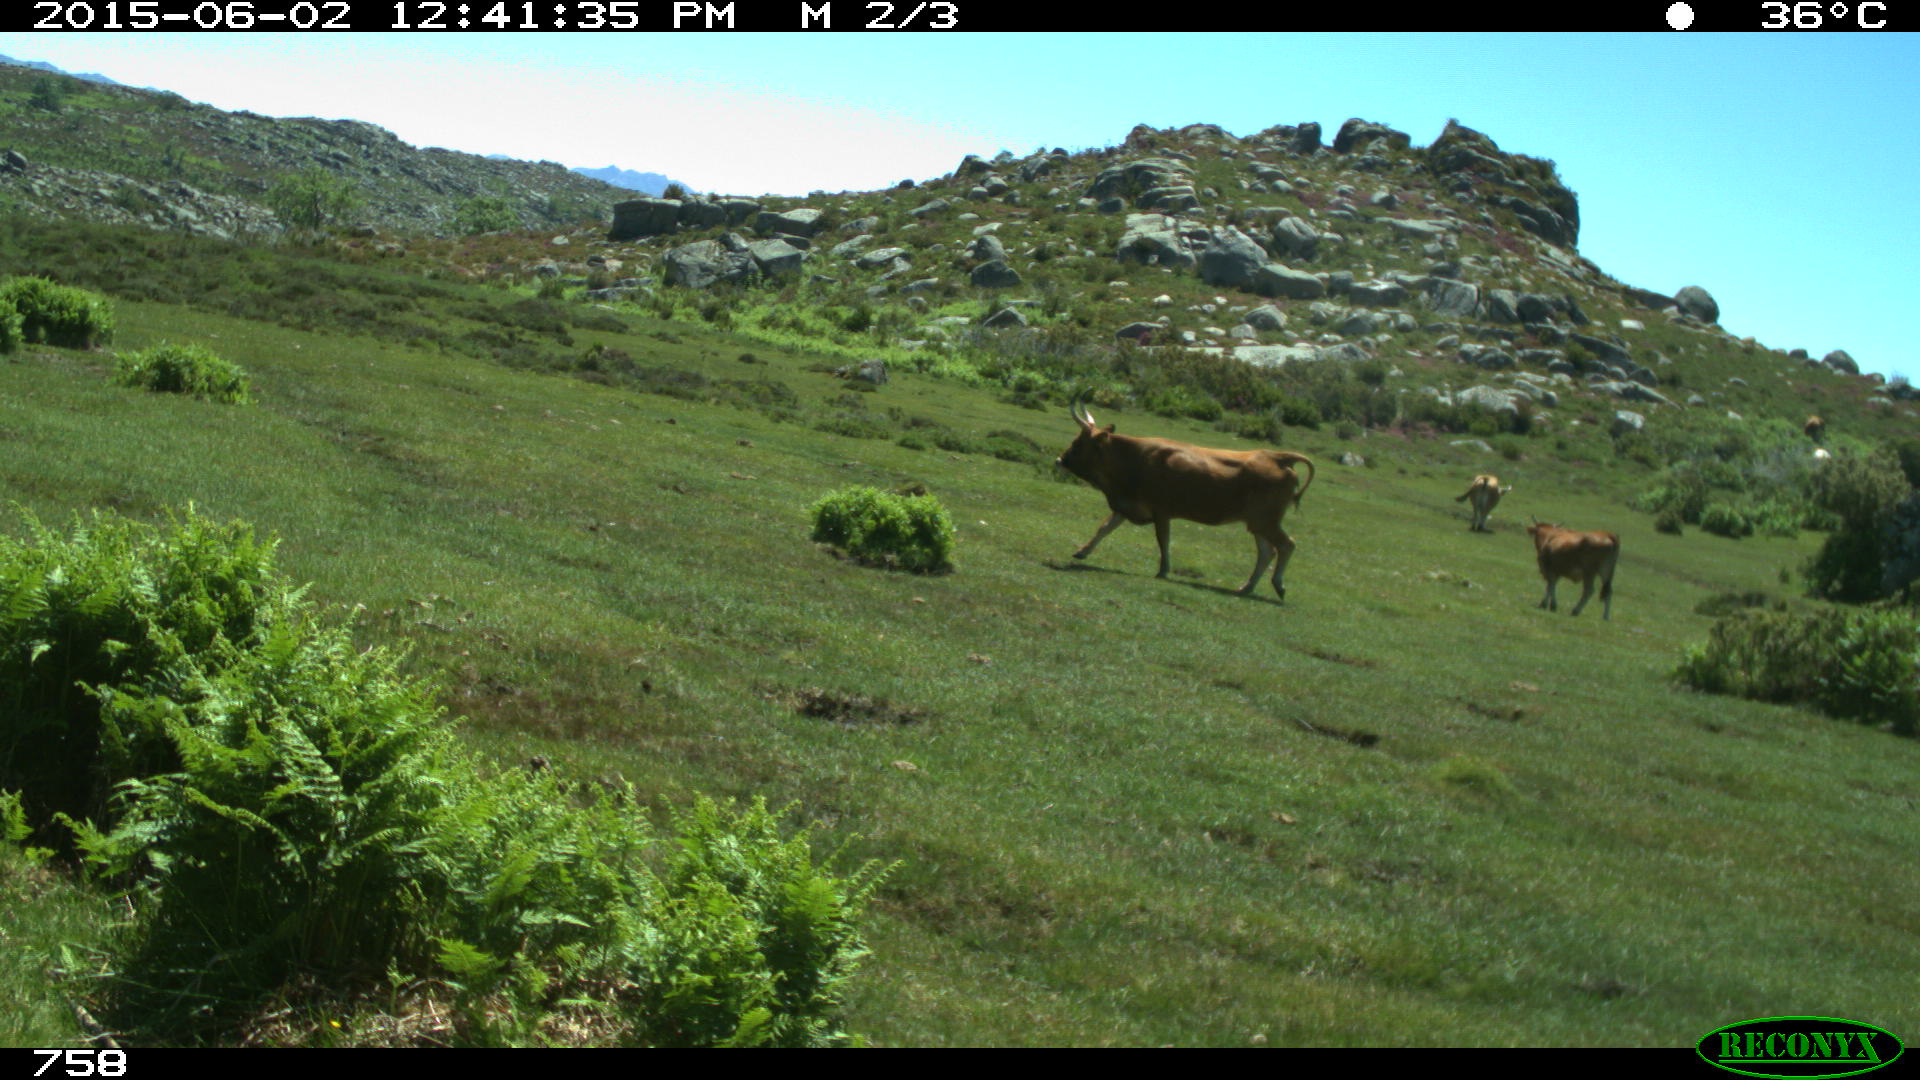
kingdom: Animalia
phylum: Chordata
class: Mammalia
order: Artiodactyla
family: Bovidae
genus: Bos
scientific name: Bos taurus
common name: Domesticated cattle
